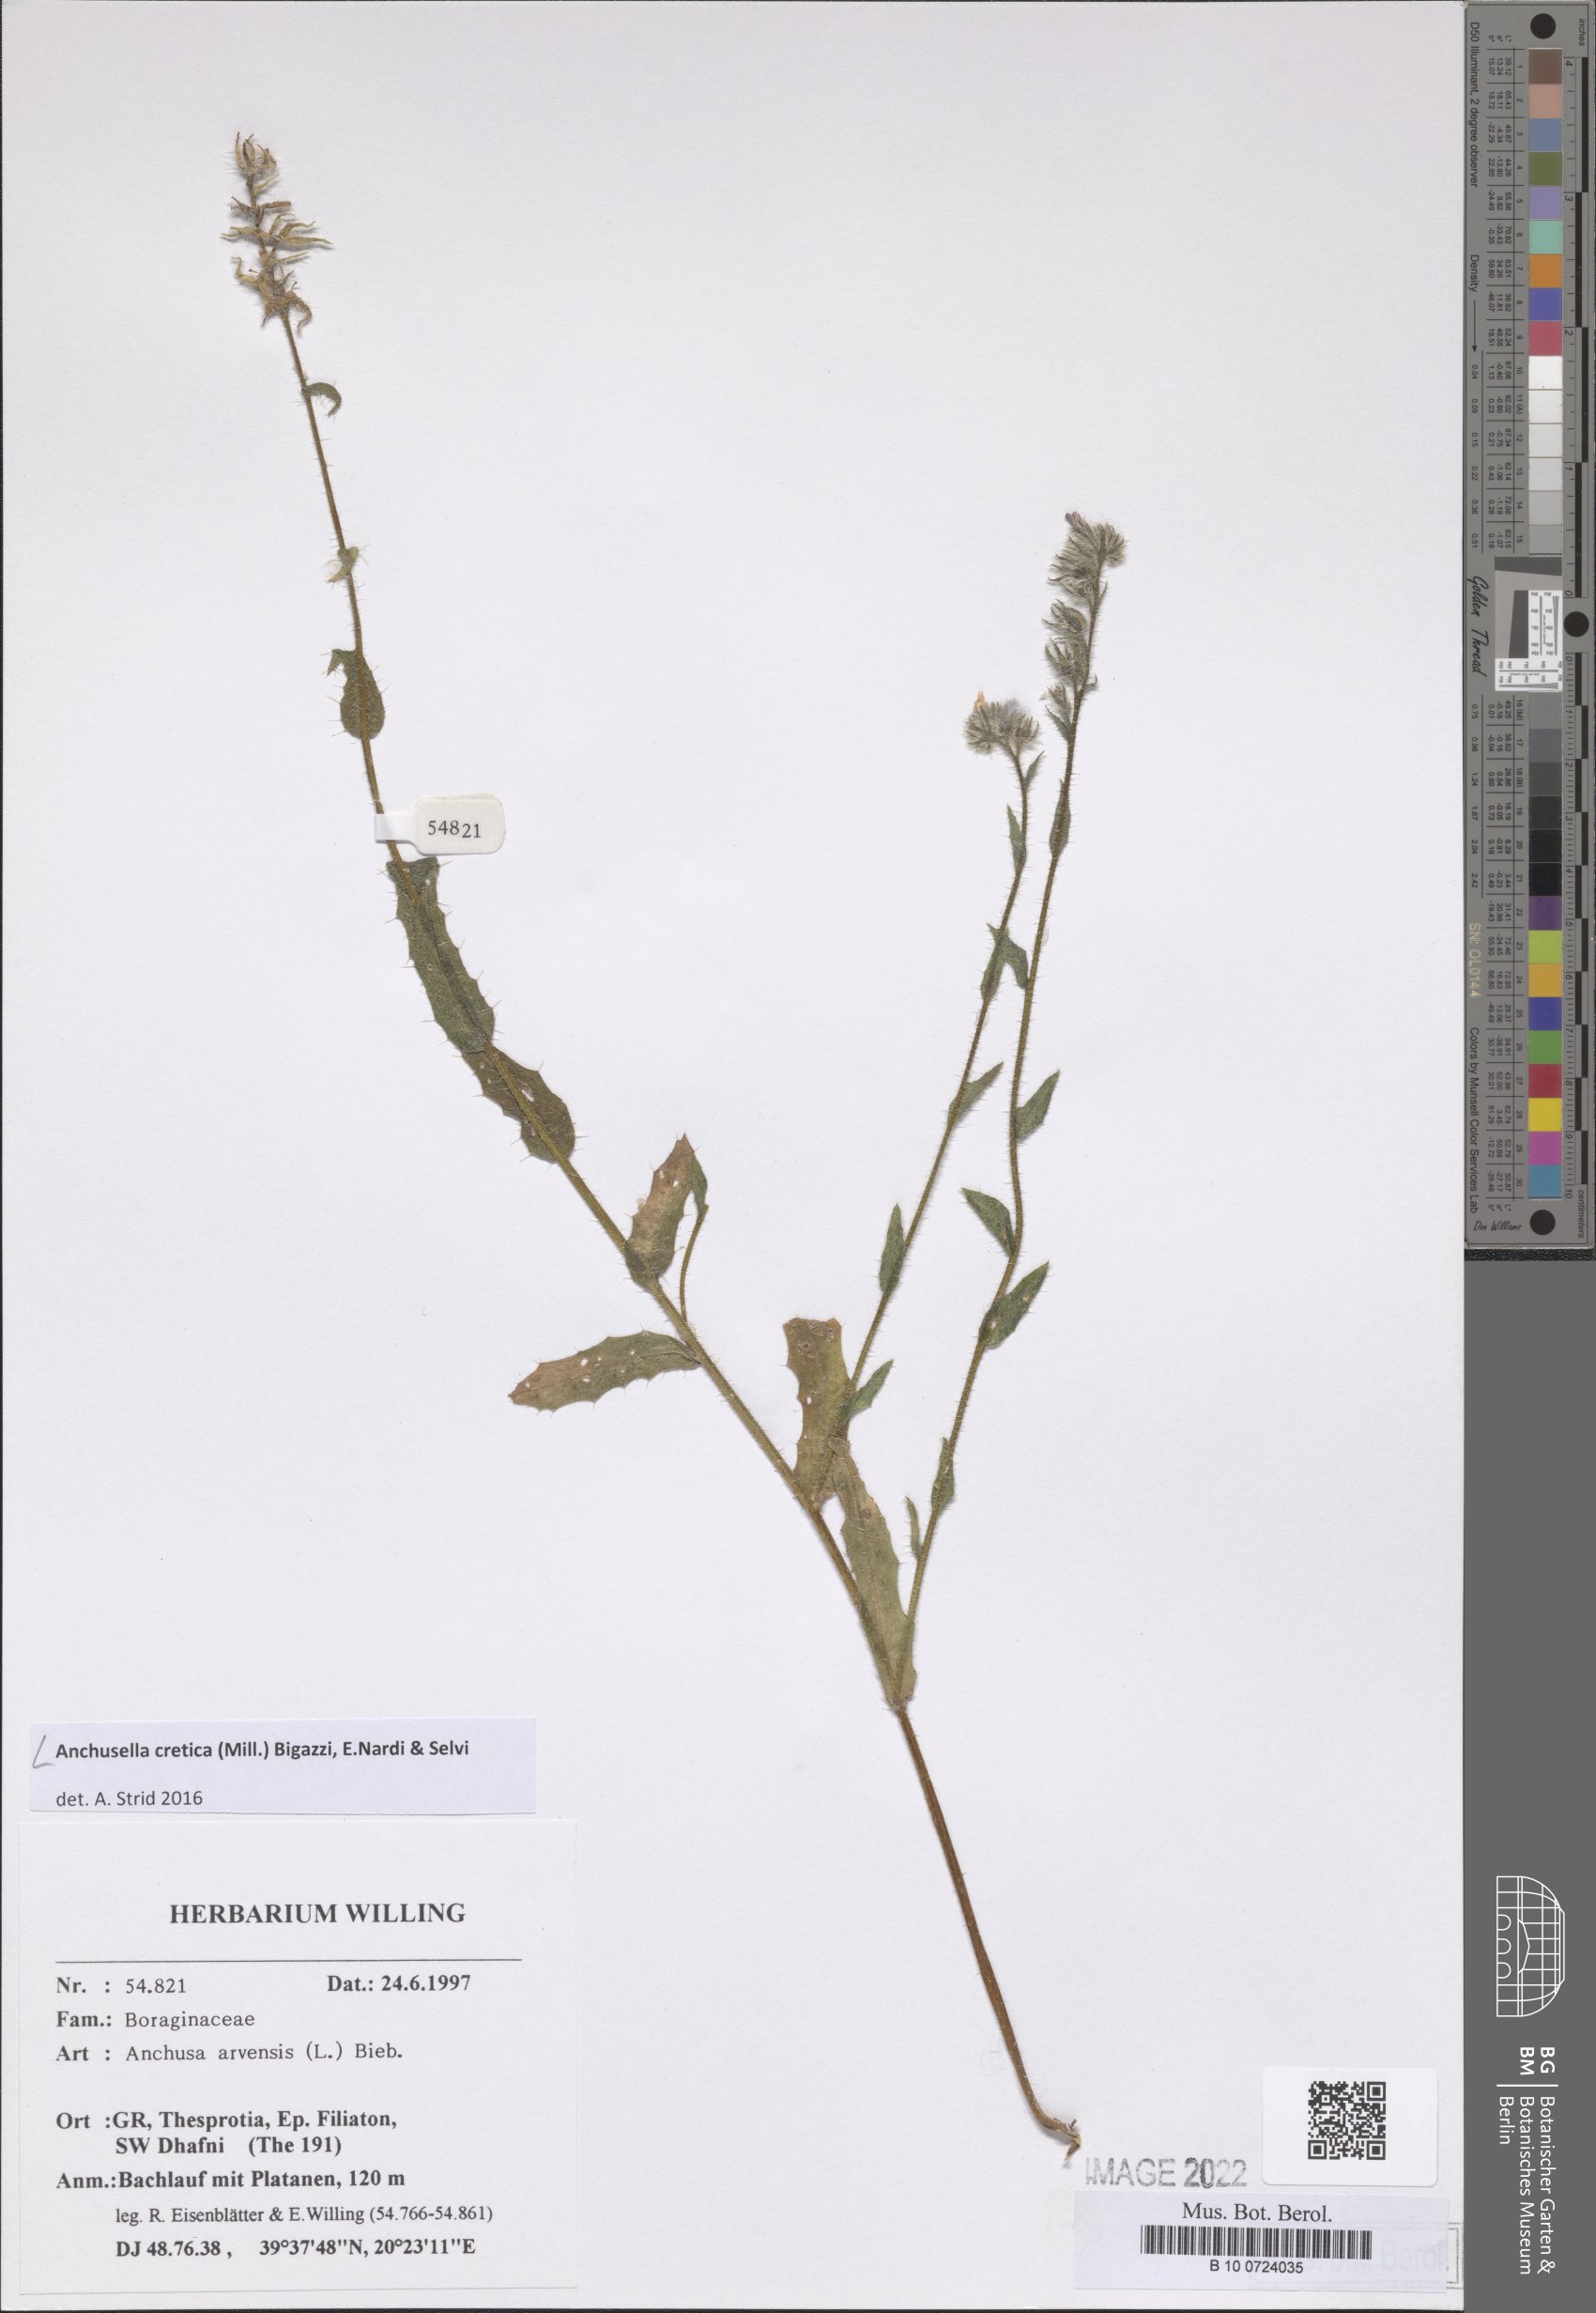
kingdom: Plantae
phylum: Tracheophyta
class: Magnoliopsida
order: Boraginales
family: Boraginaceae
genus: Anchusella
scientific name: Anchusella cretica
